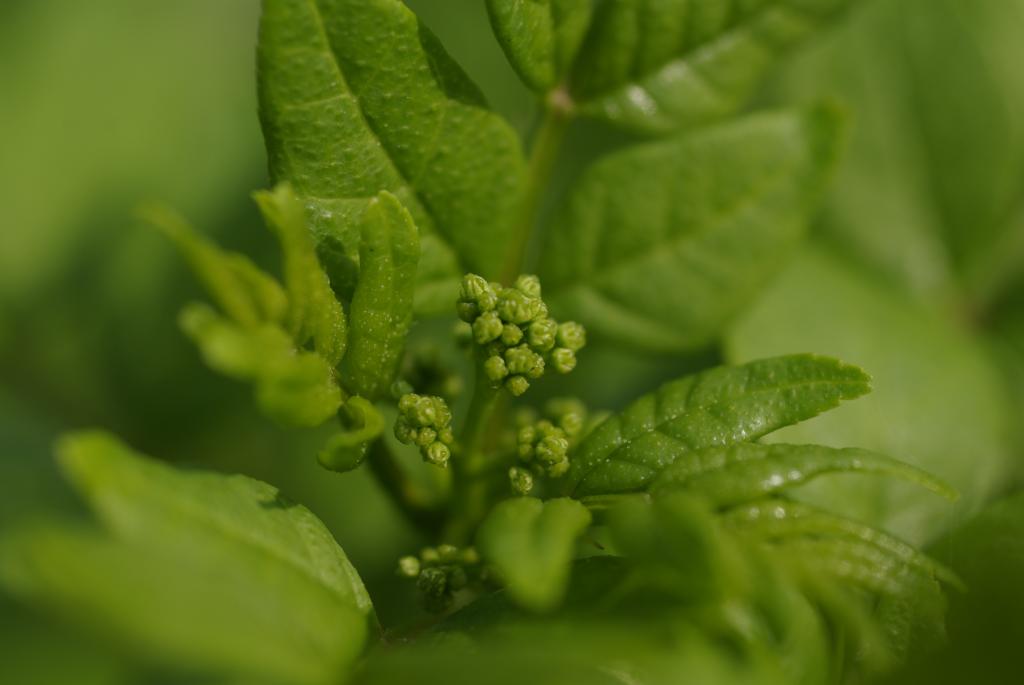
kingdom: Plantae
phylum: Tracheophyta
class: Magnoliopsida
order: Sapindales
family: Rutaceae
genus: Zanthoxylum
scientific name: Zanthoxylum simulans
